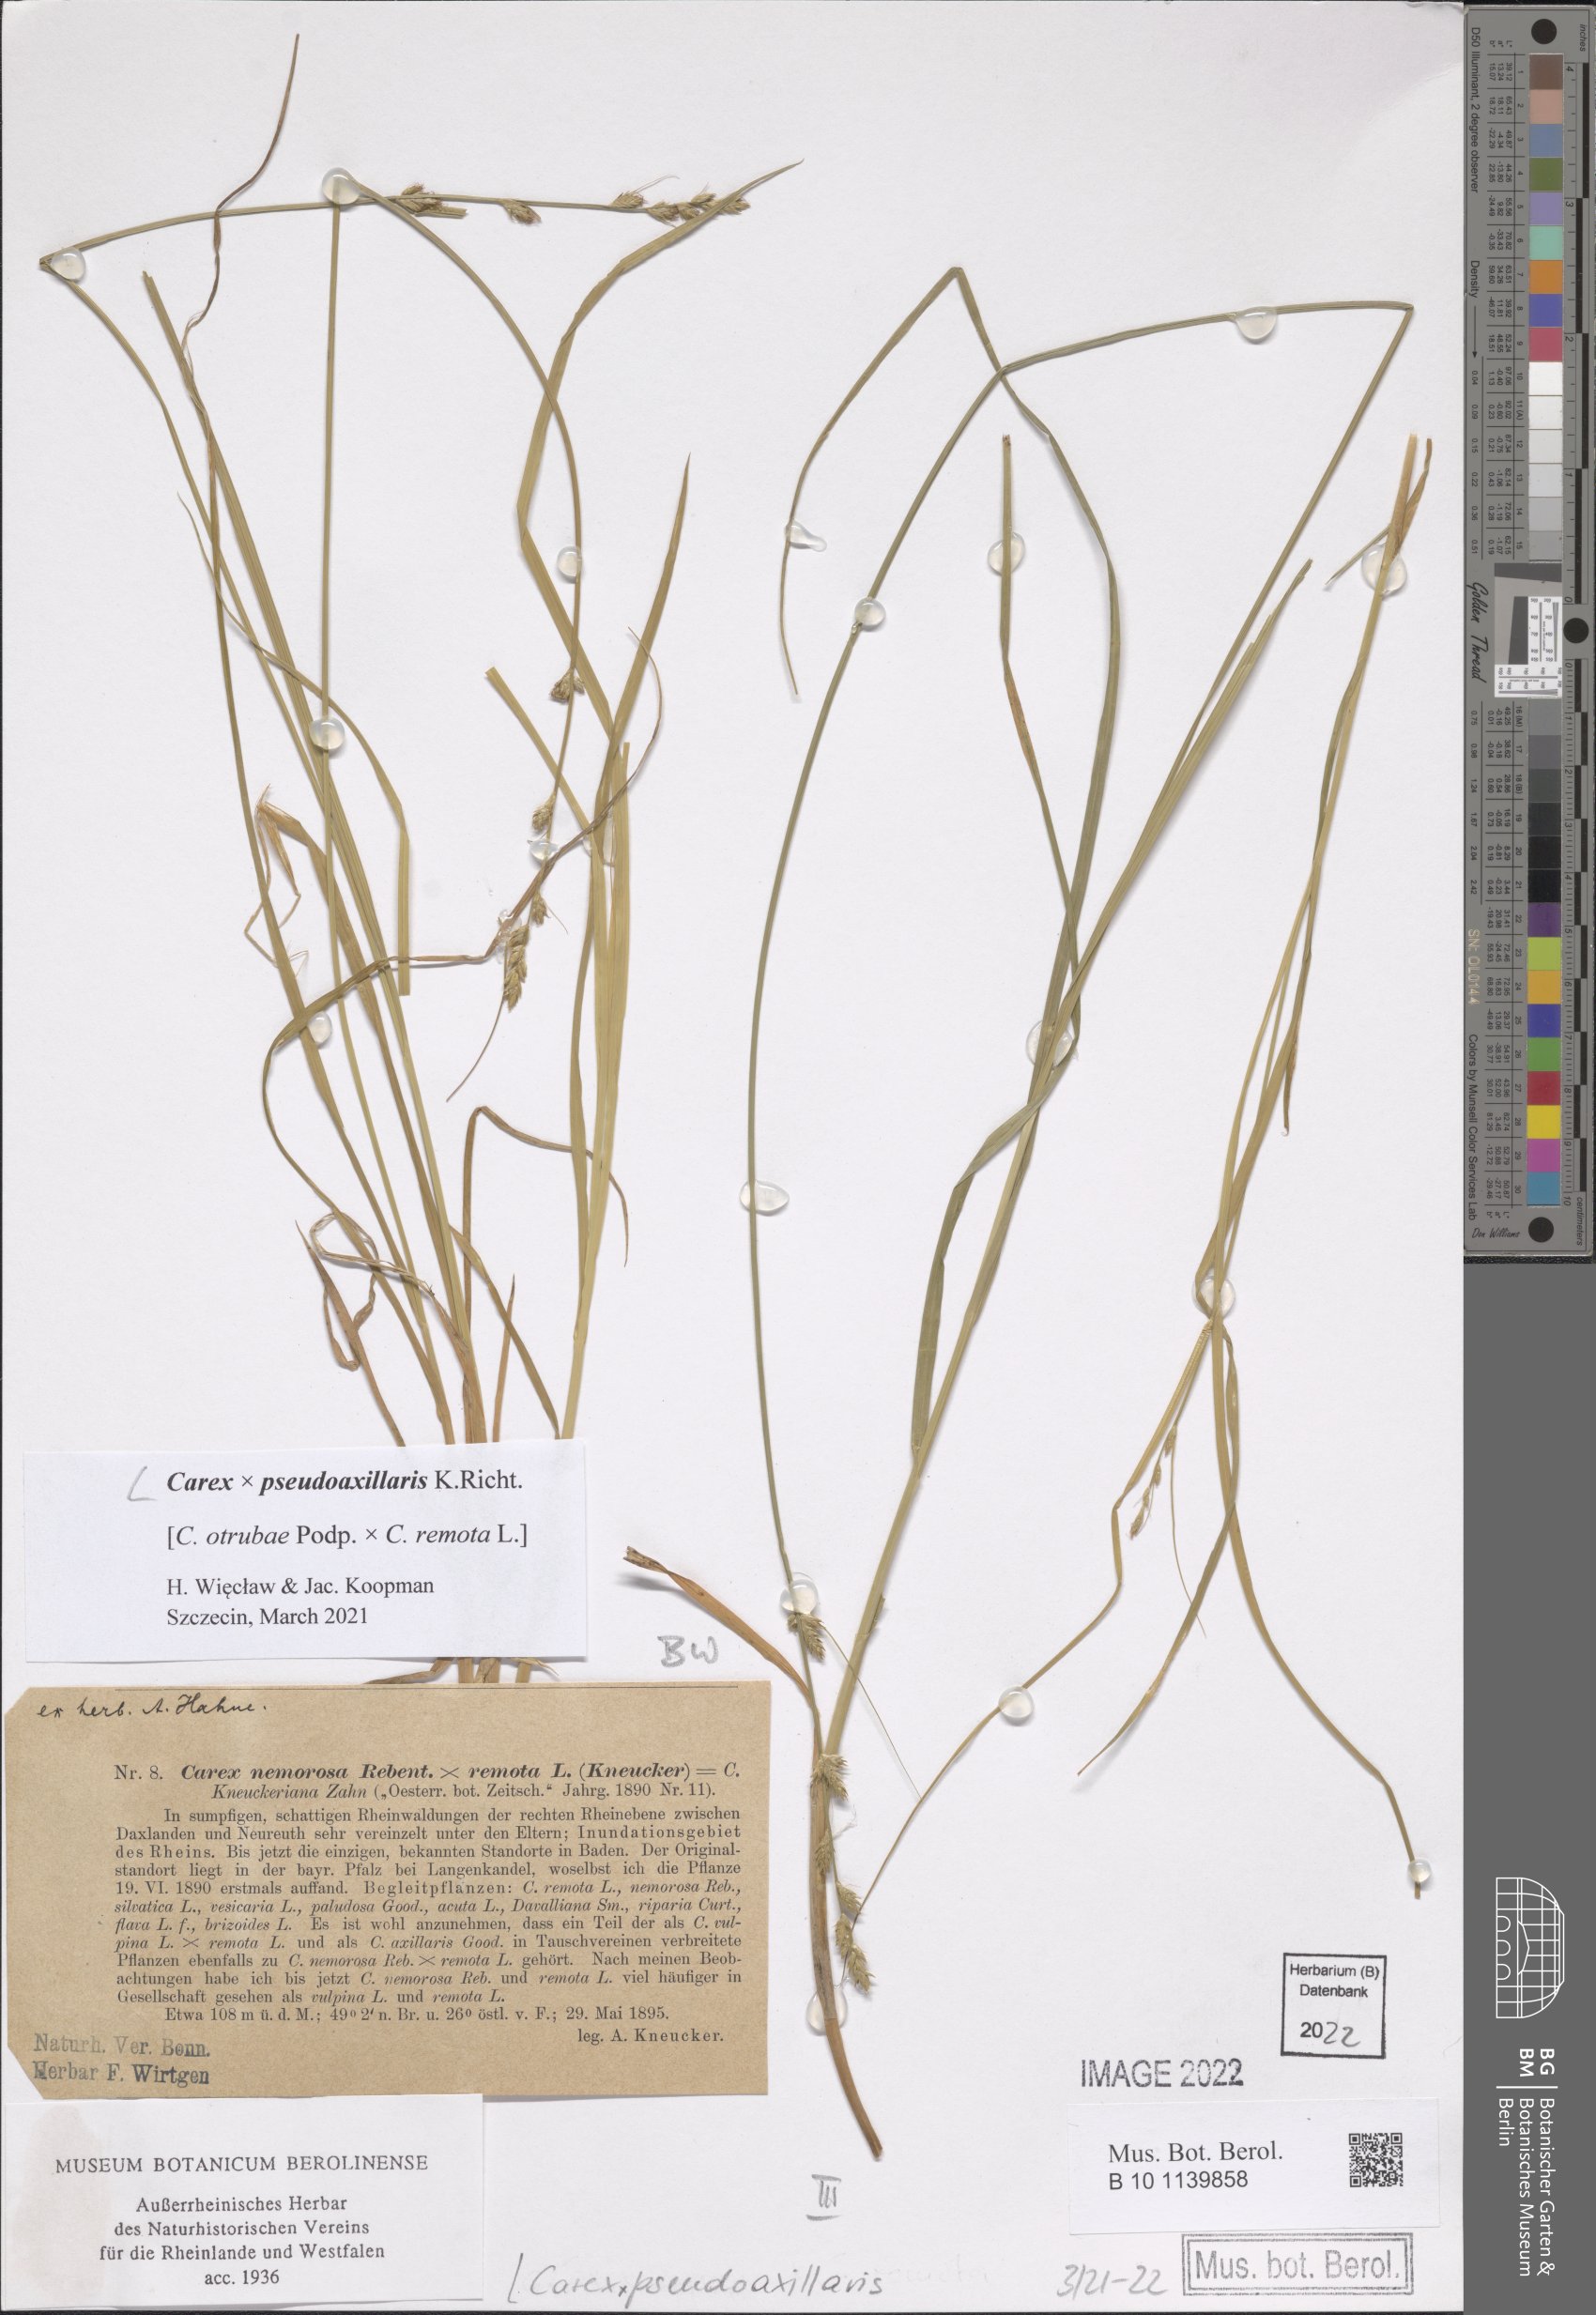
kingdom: Plantae
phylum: Tracheophyta
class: Liliopsida
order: Poales
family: Cyperaceae
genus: Carex
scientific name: Carex pseudoaxillaris
